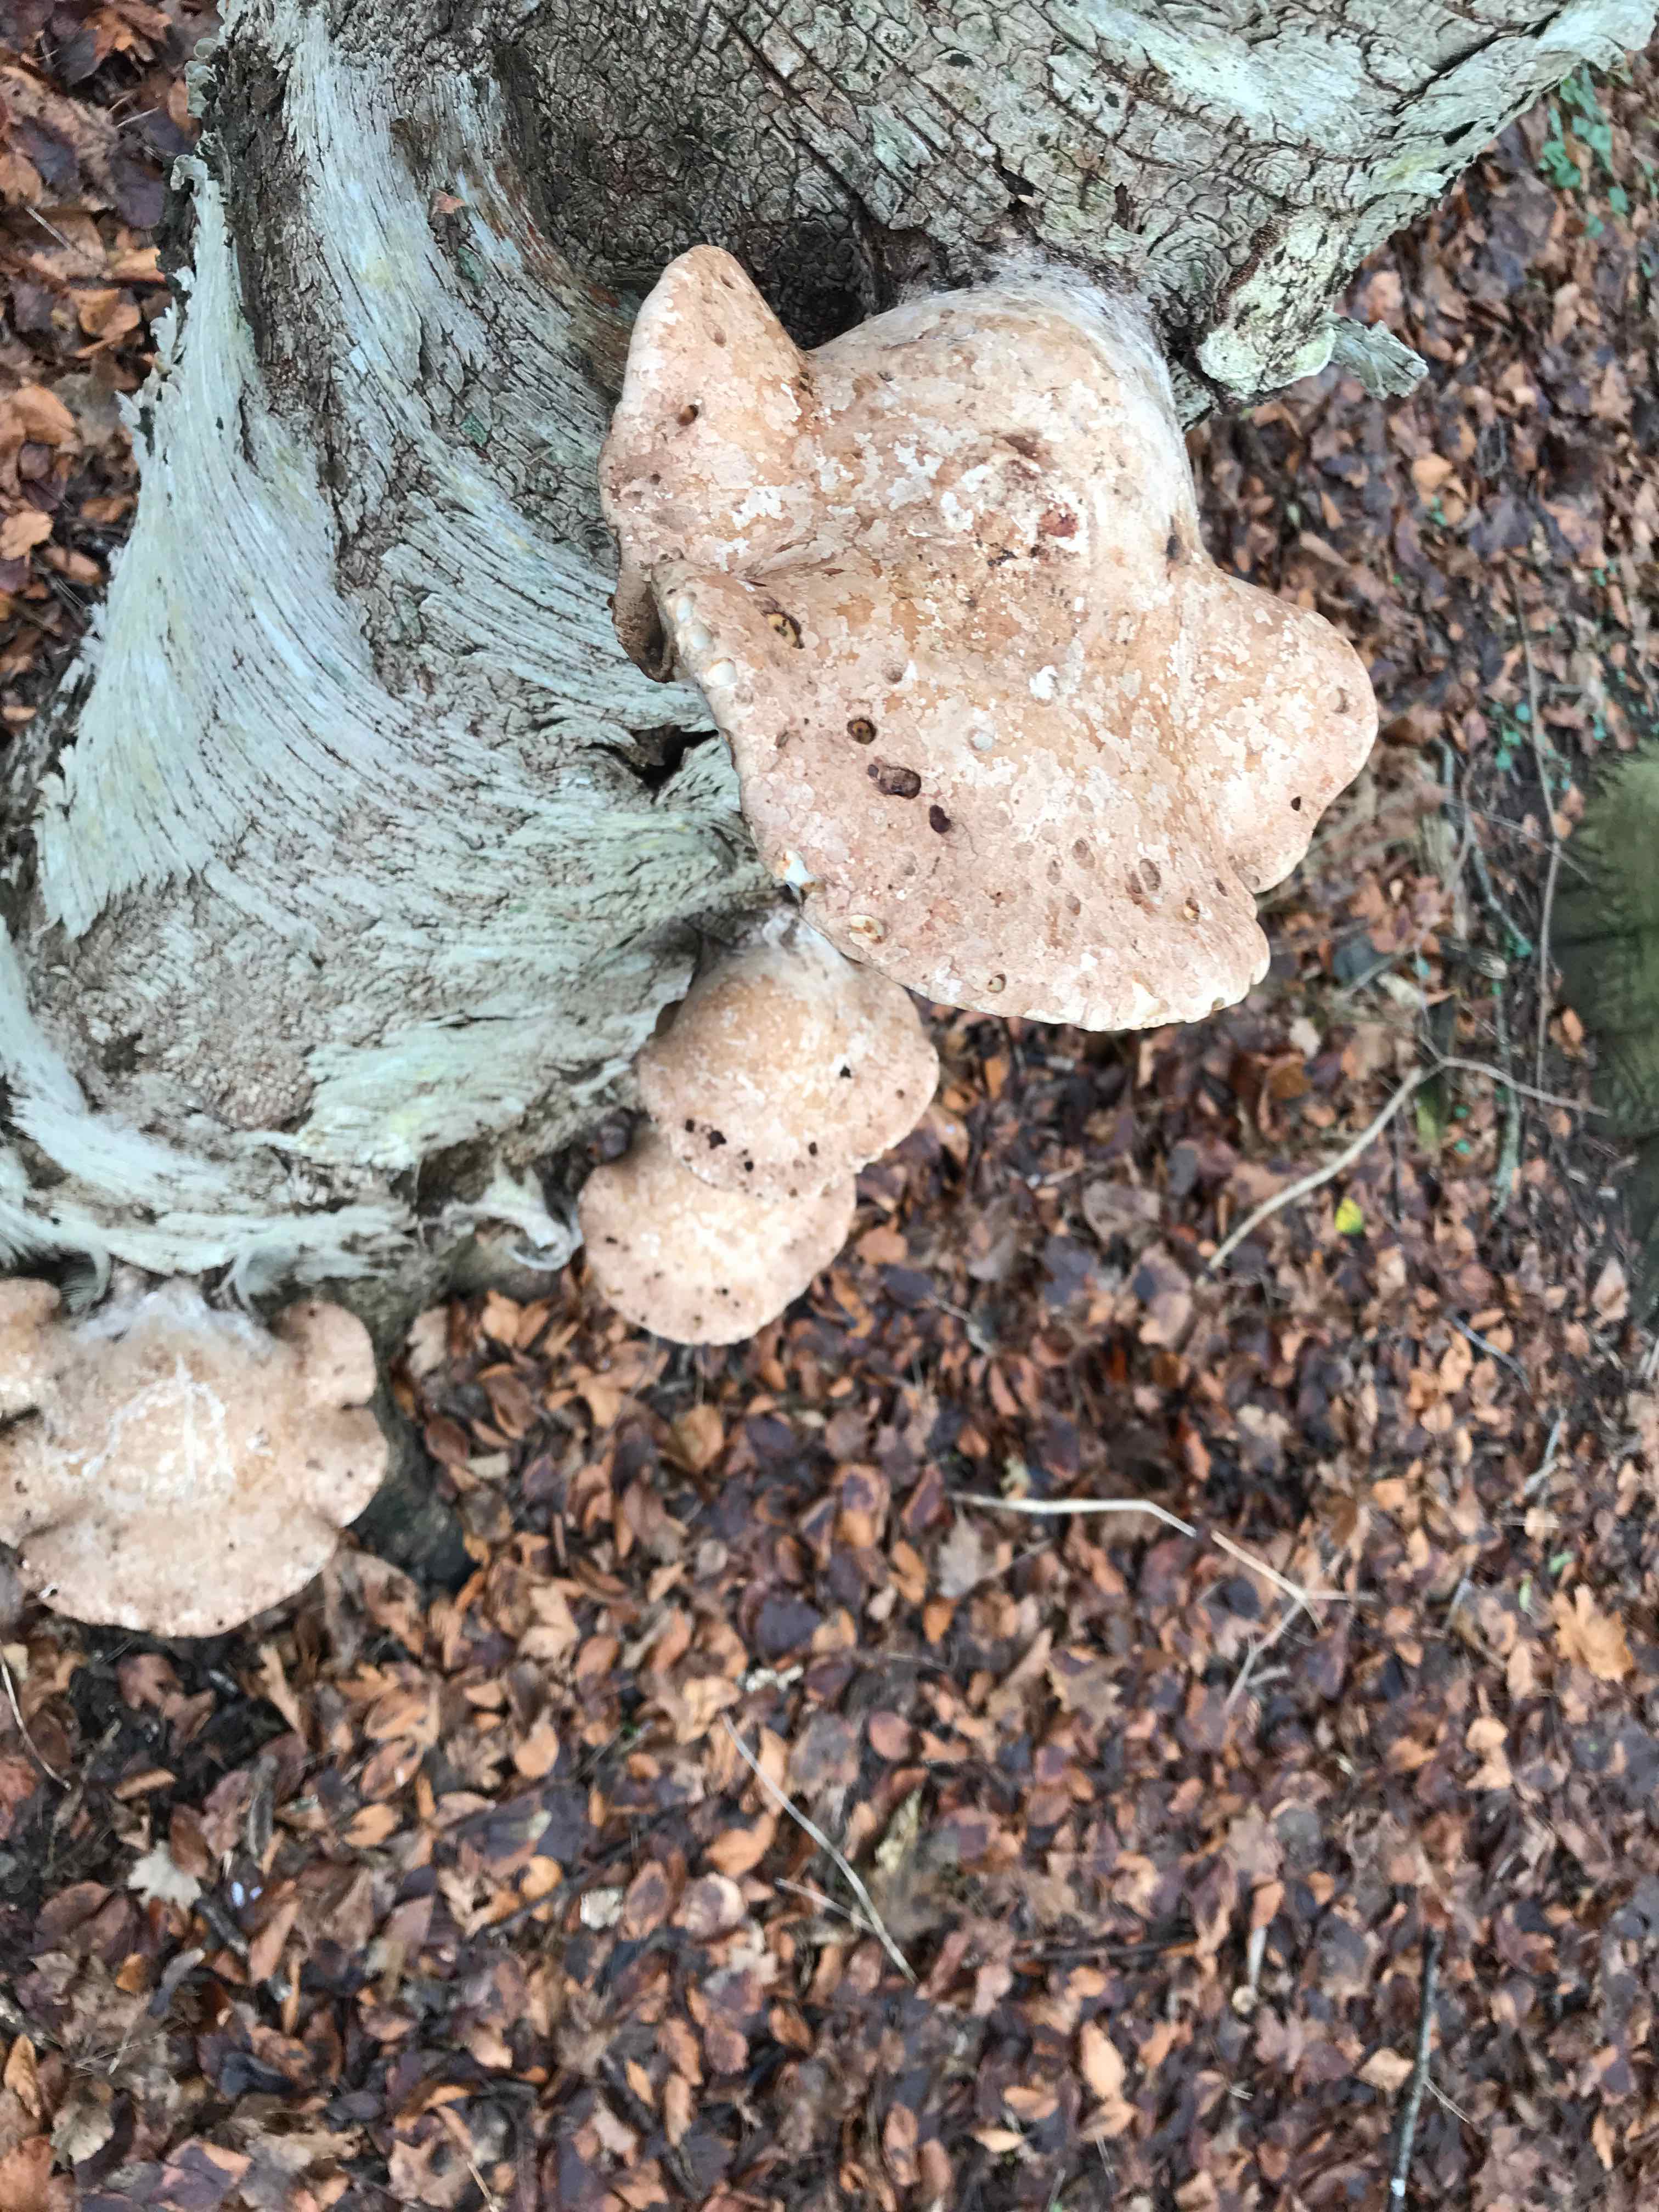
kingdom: Fungi
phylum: Basidiomycota
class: Agaricomycetes
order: Polyporales
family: Fomitopsidaceae
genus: Fomitopsis
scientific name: Fomitopsis betulina
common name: birkeporesvamp
